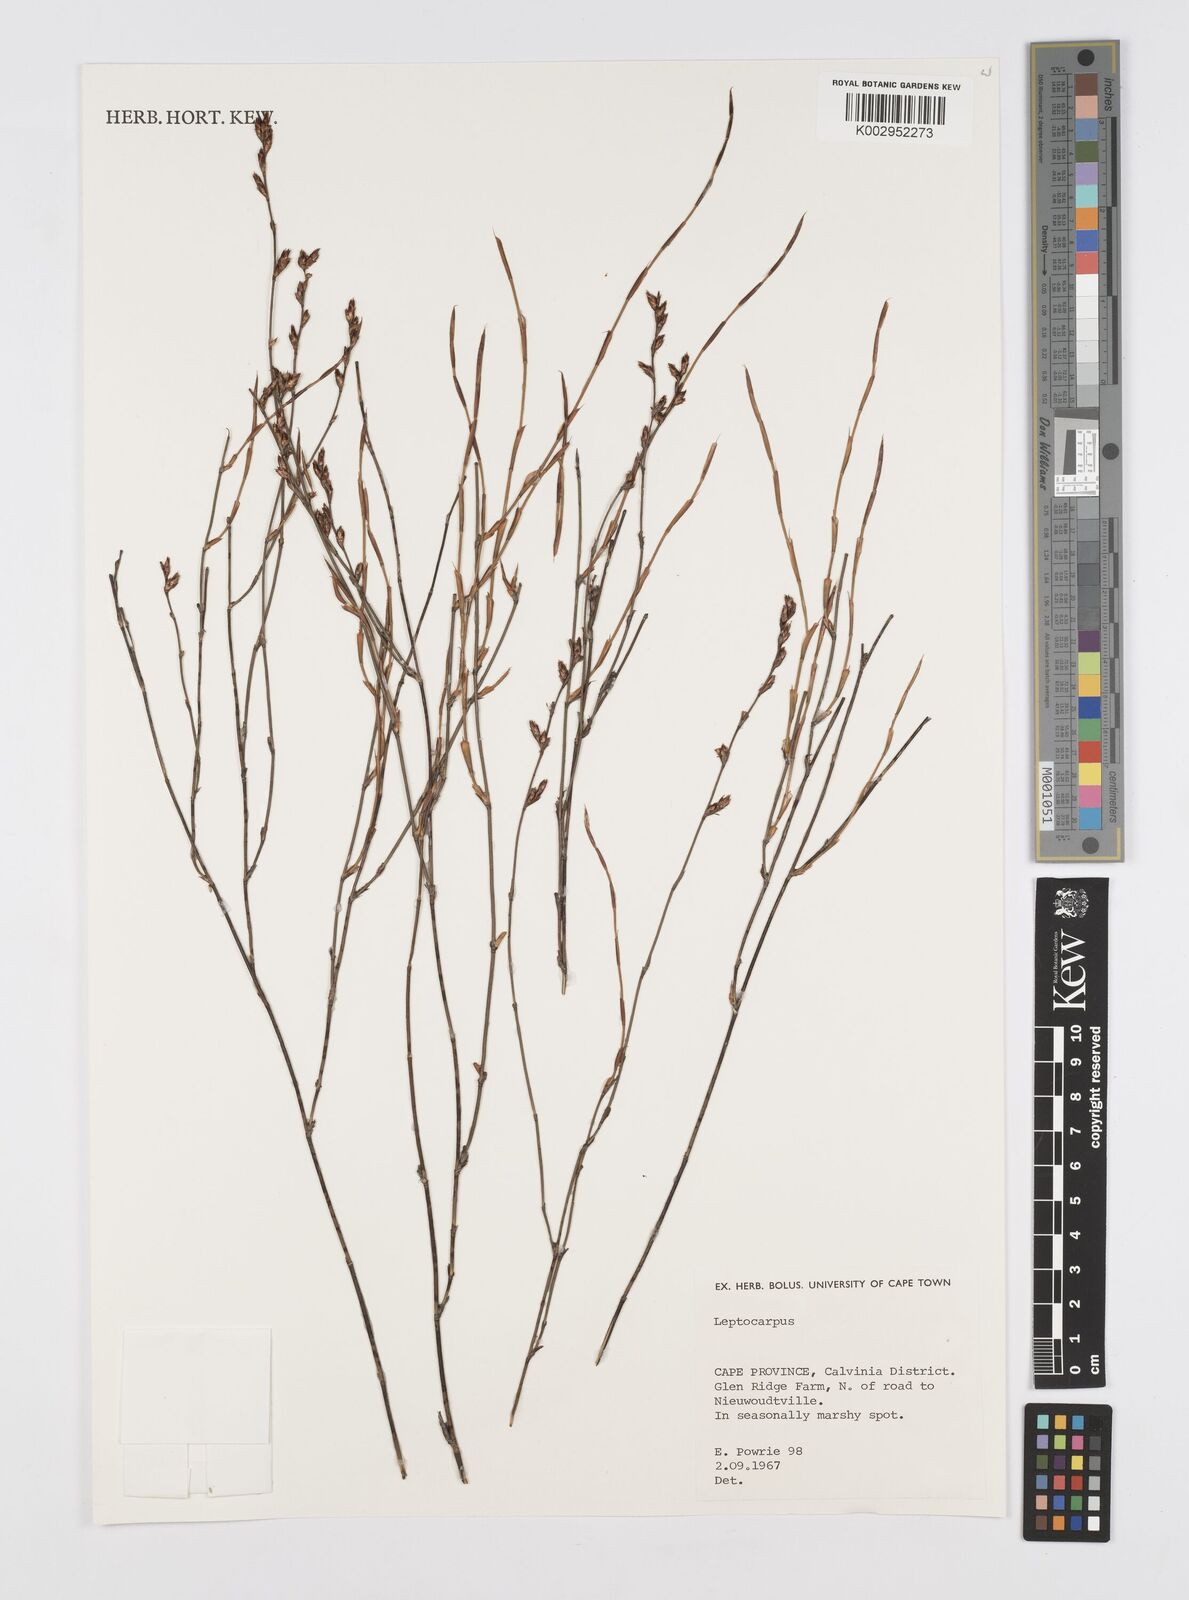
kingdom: Plantae
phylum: Tracheophyta
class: Liliopsida
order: Poales
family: Restionaceae
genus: Restio
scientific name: Restio
